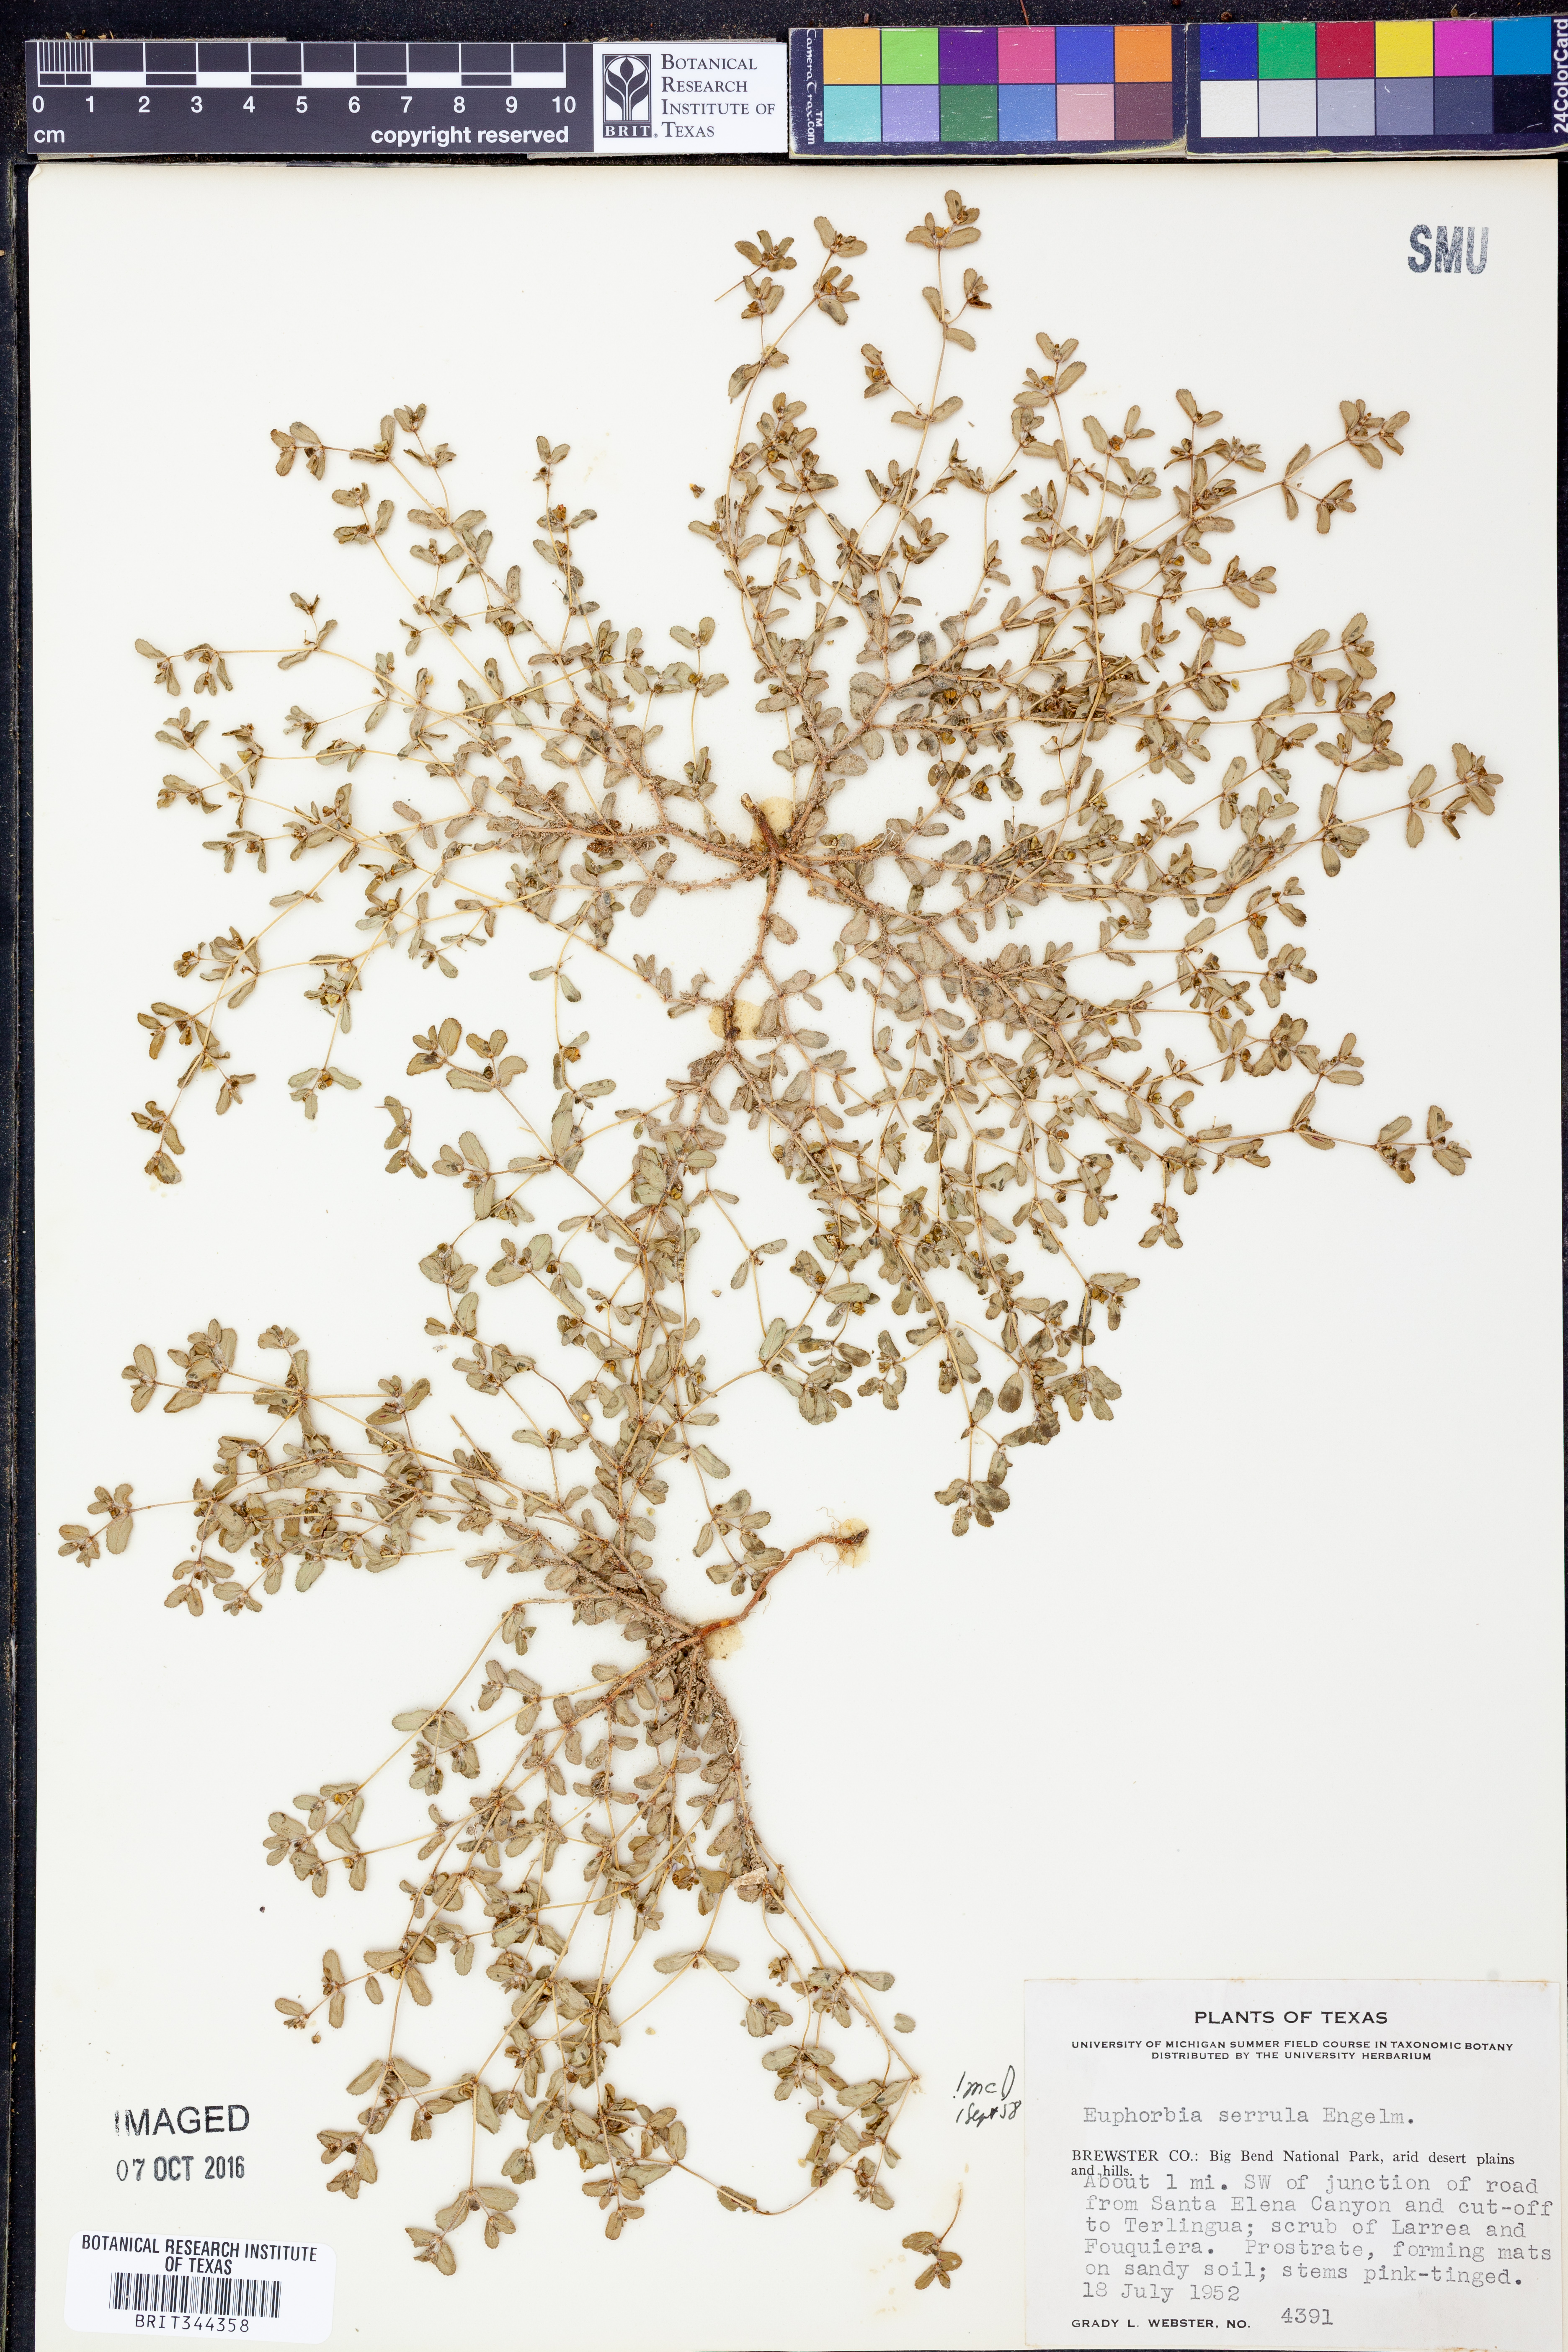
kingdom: Plantae
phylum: Tracheophyta
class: Magnoliopsida
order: Malpighiales
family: Euphorbiaceae
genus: Euphorbia
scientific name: Euphorbia serrula
